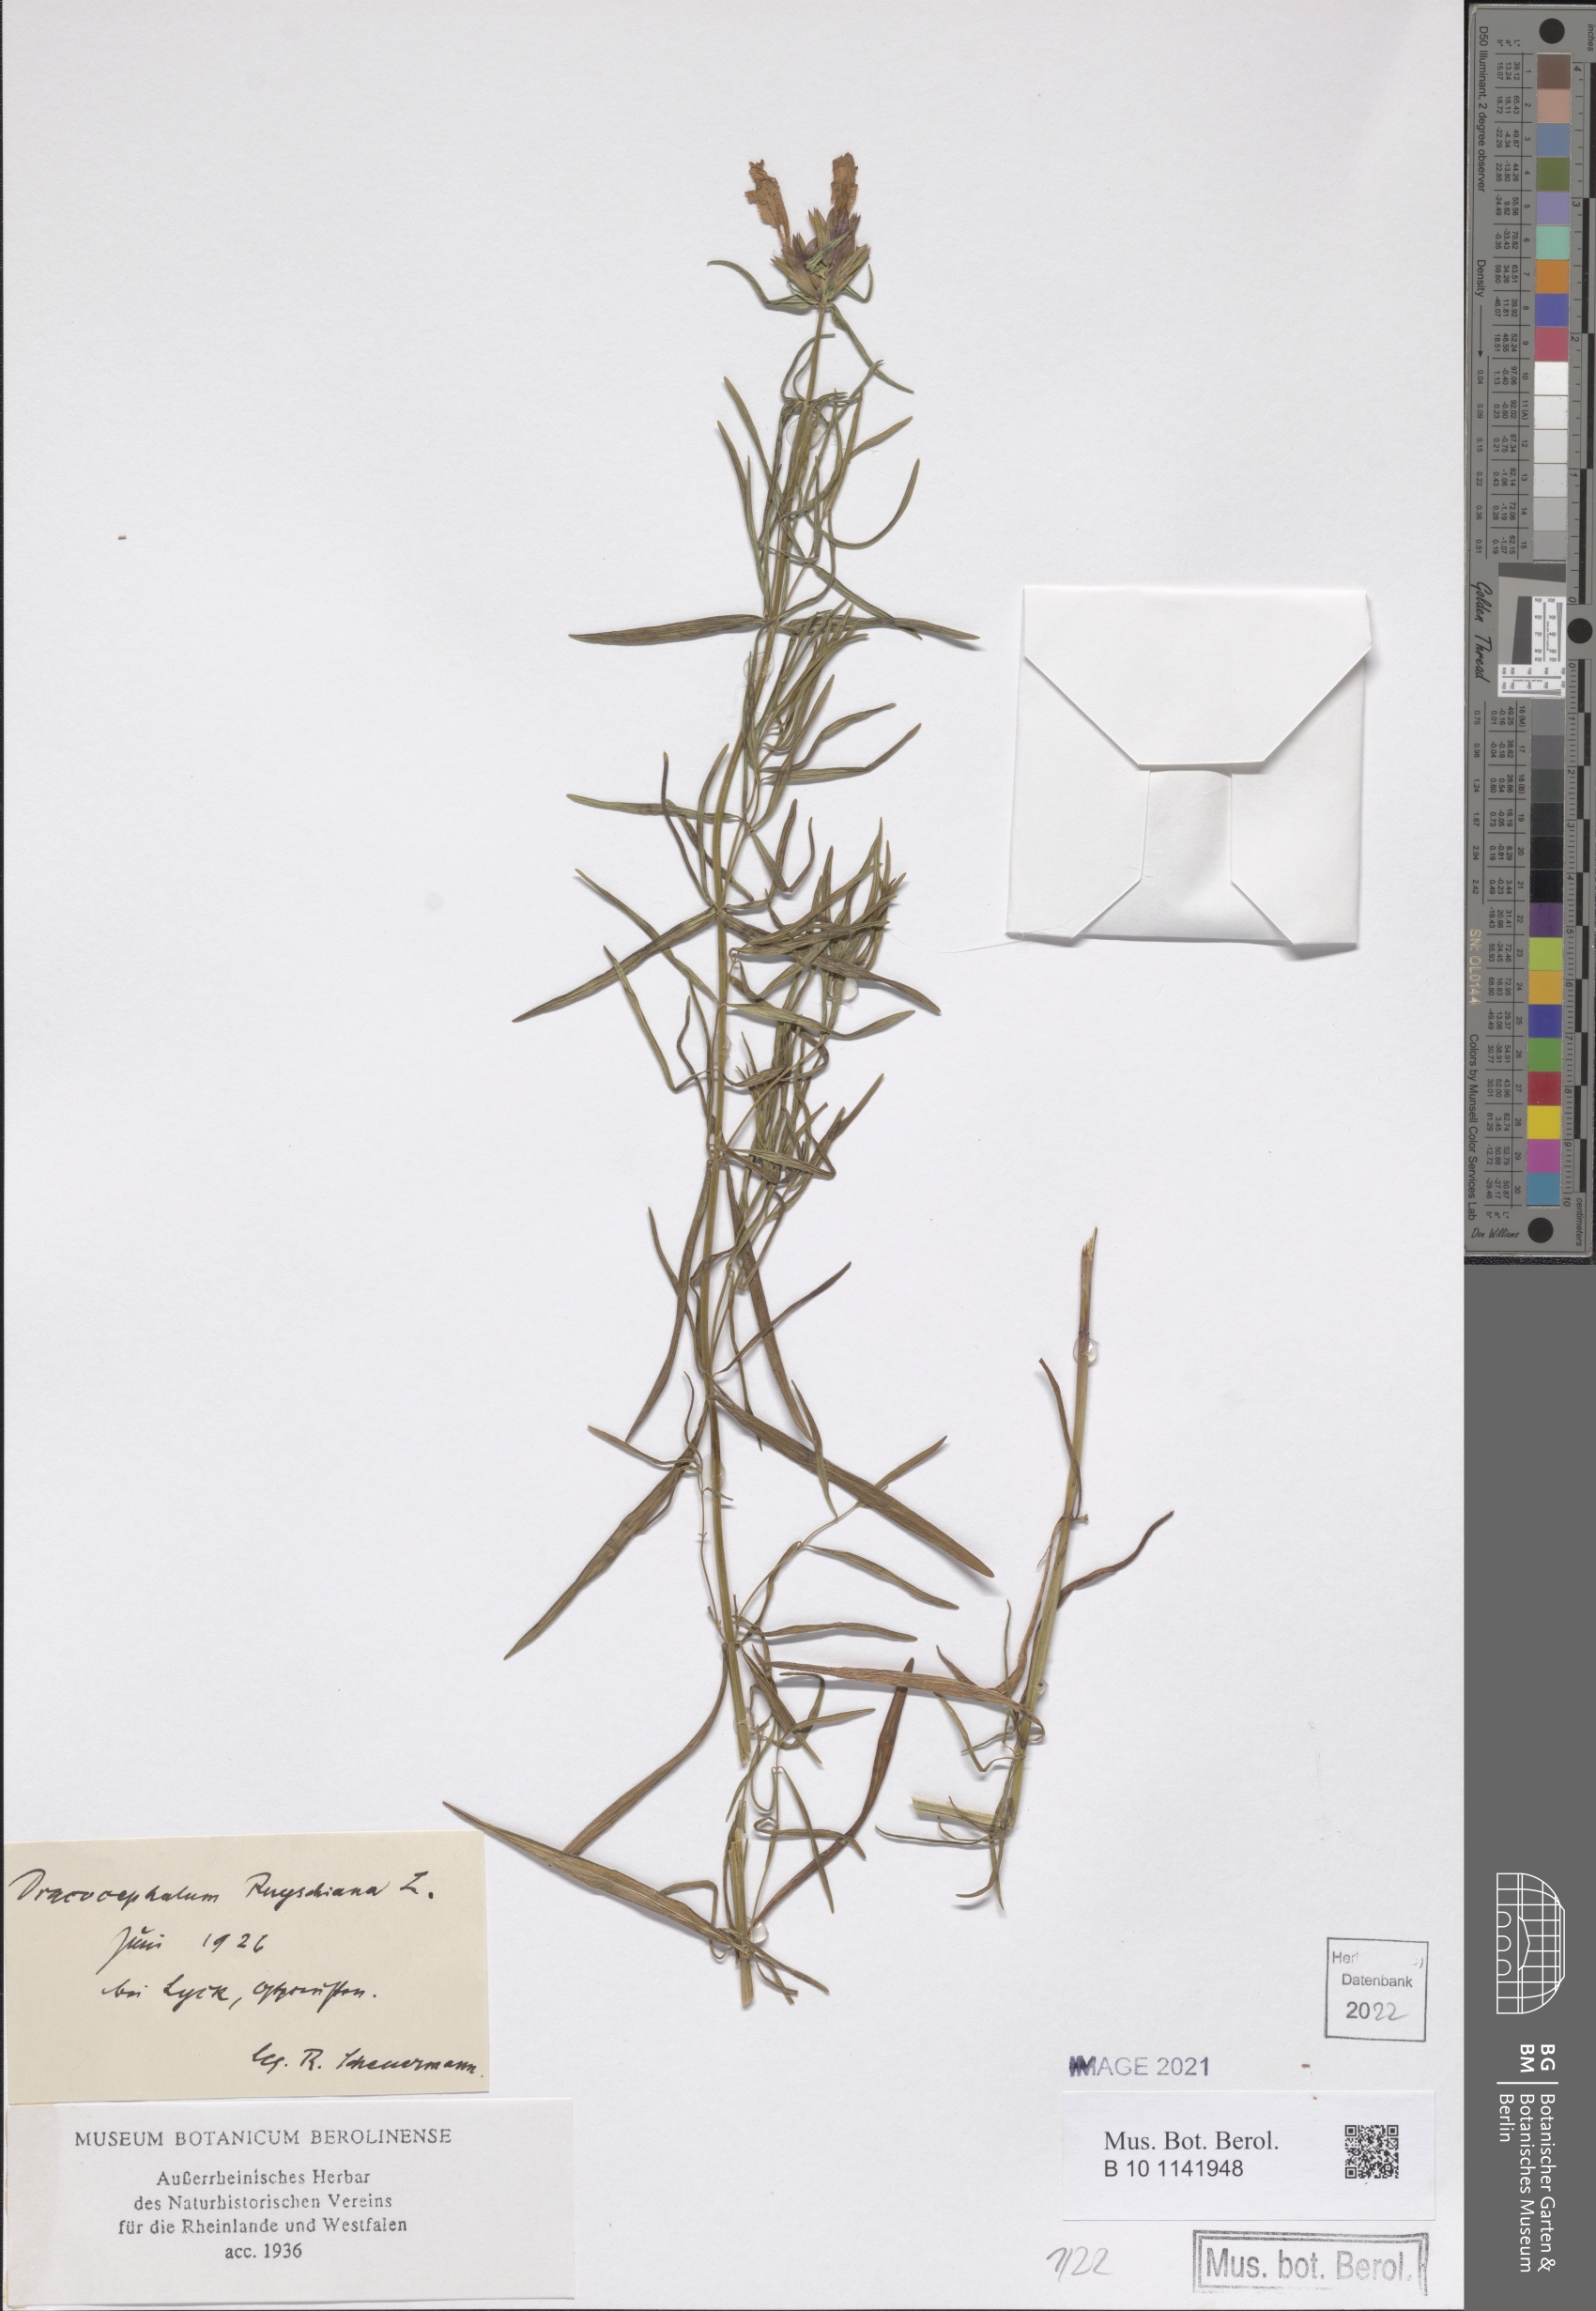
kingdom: Plantae
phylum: Tracheophyta
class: Magnoliopsida
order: Lamiales
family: Lamiaceae
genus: Dracocephalum
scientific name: Dracocephalum ruyschiana
